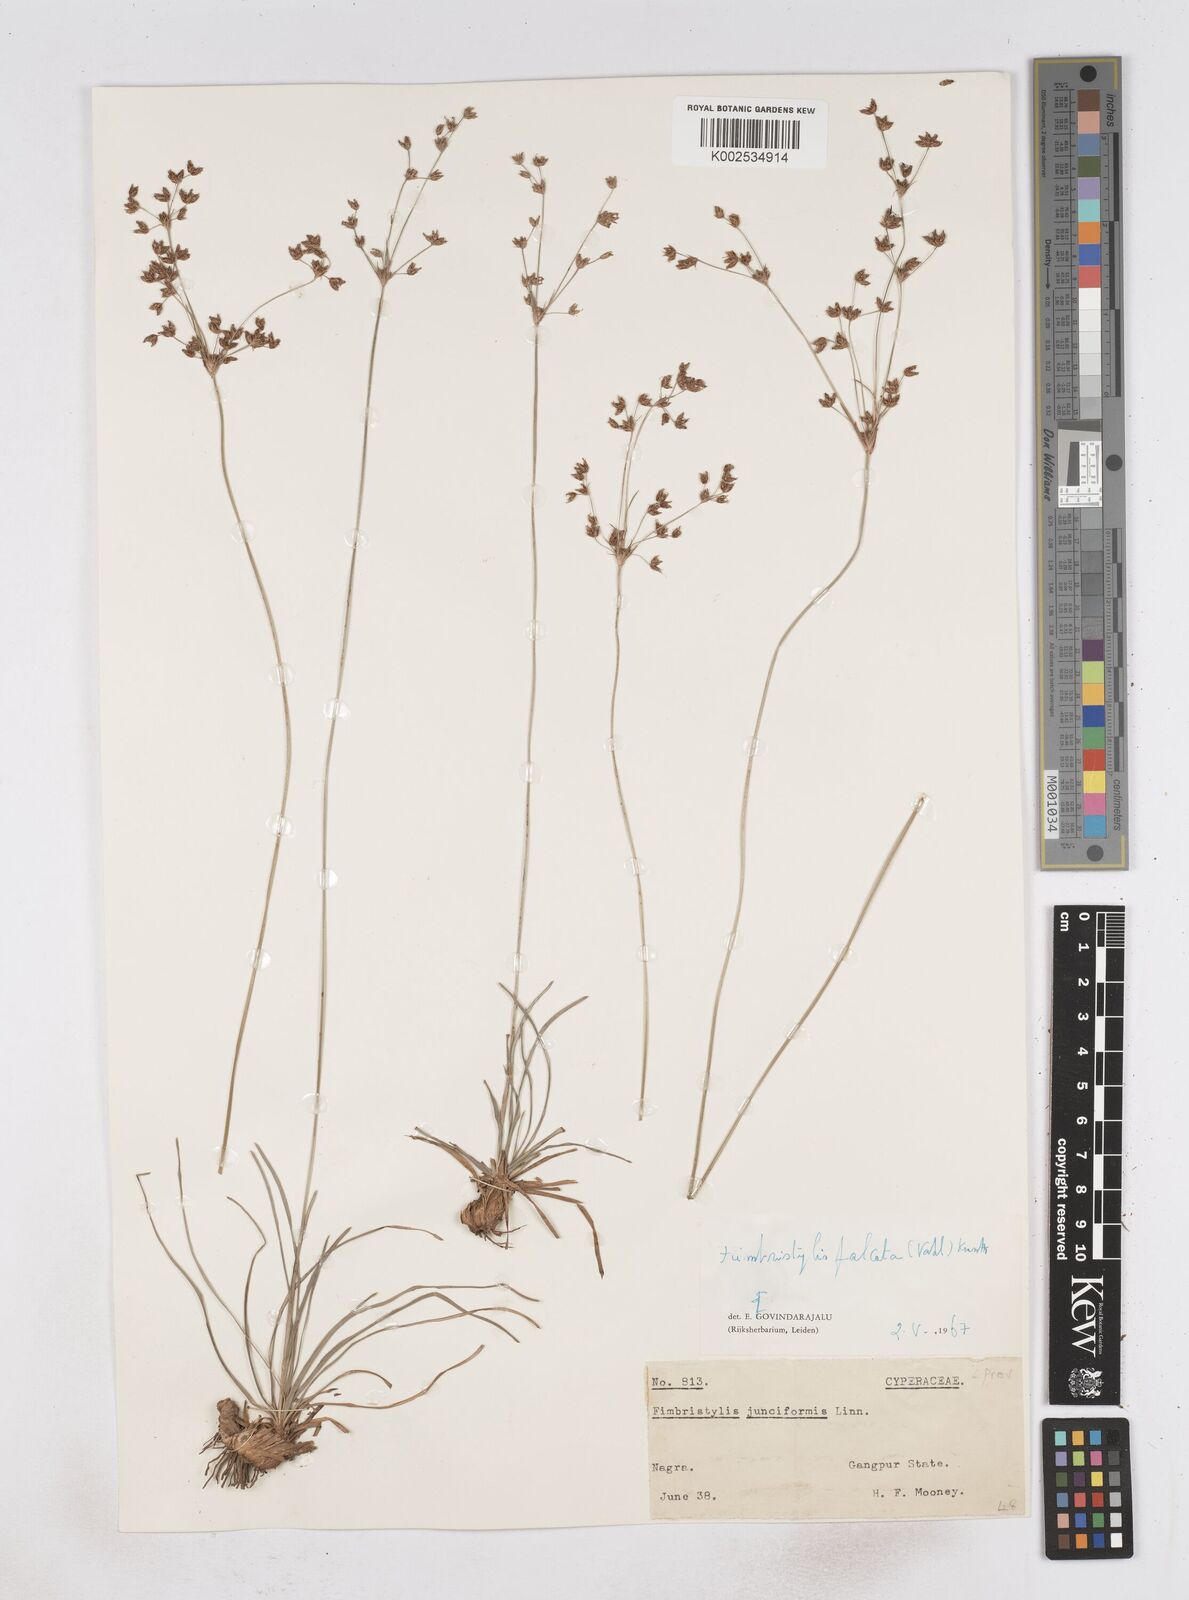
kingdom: Plantae
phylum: Tracheophyta
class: Liliopsida
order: Poales
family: Cyperaceae
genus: Fimbristylis
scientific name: Fimbristylis falcata
